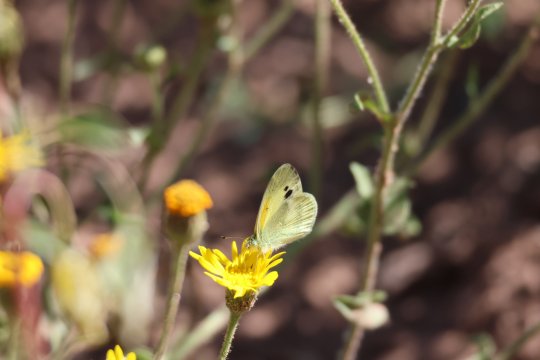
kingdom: Animalia
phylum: Arthropoda
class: Insecta
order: Lepidoptera
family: Pieridae
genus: Nathalis
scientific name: Nathalis iole
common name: Dainty Sulphur
